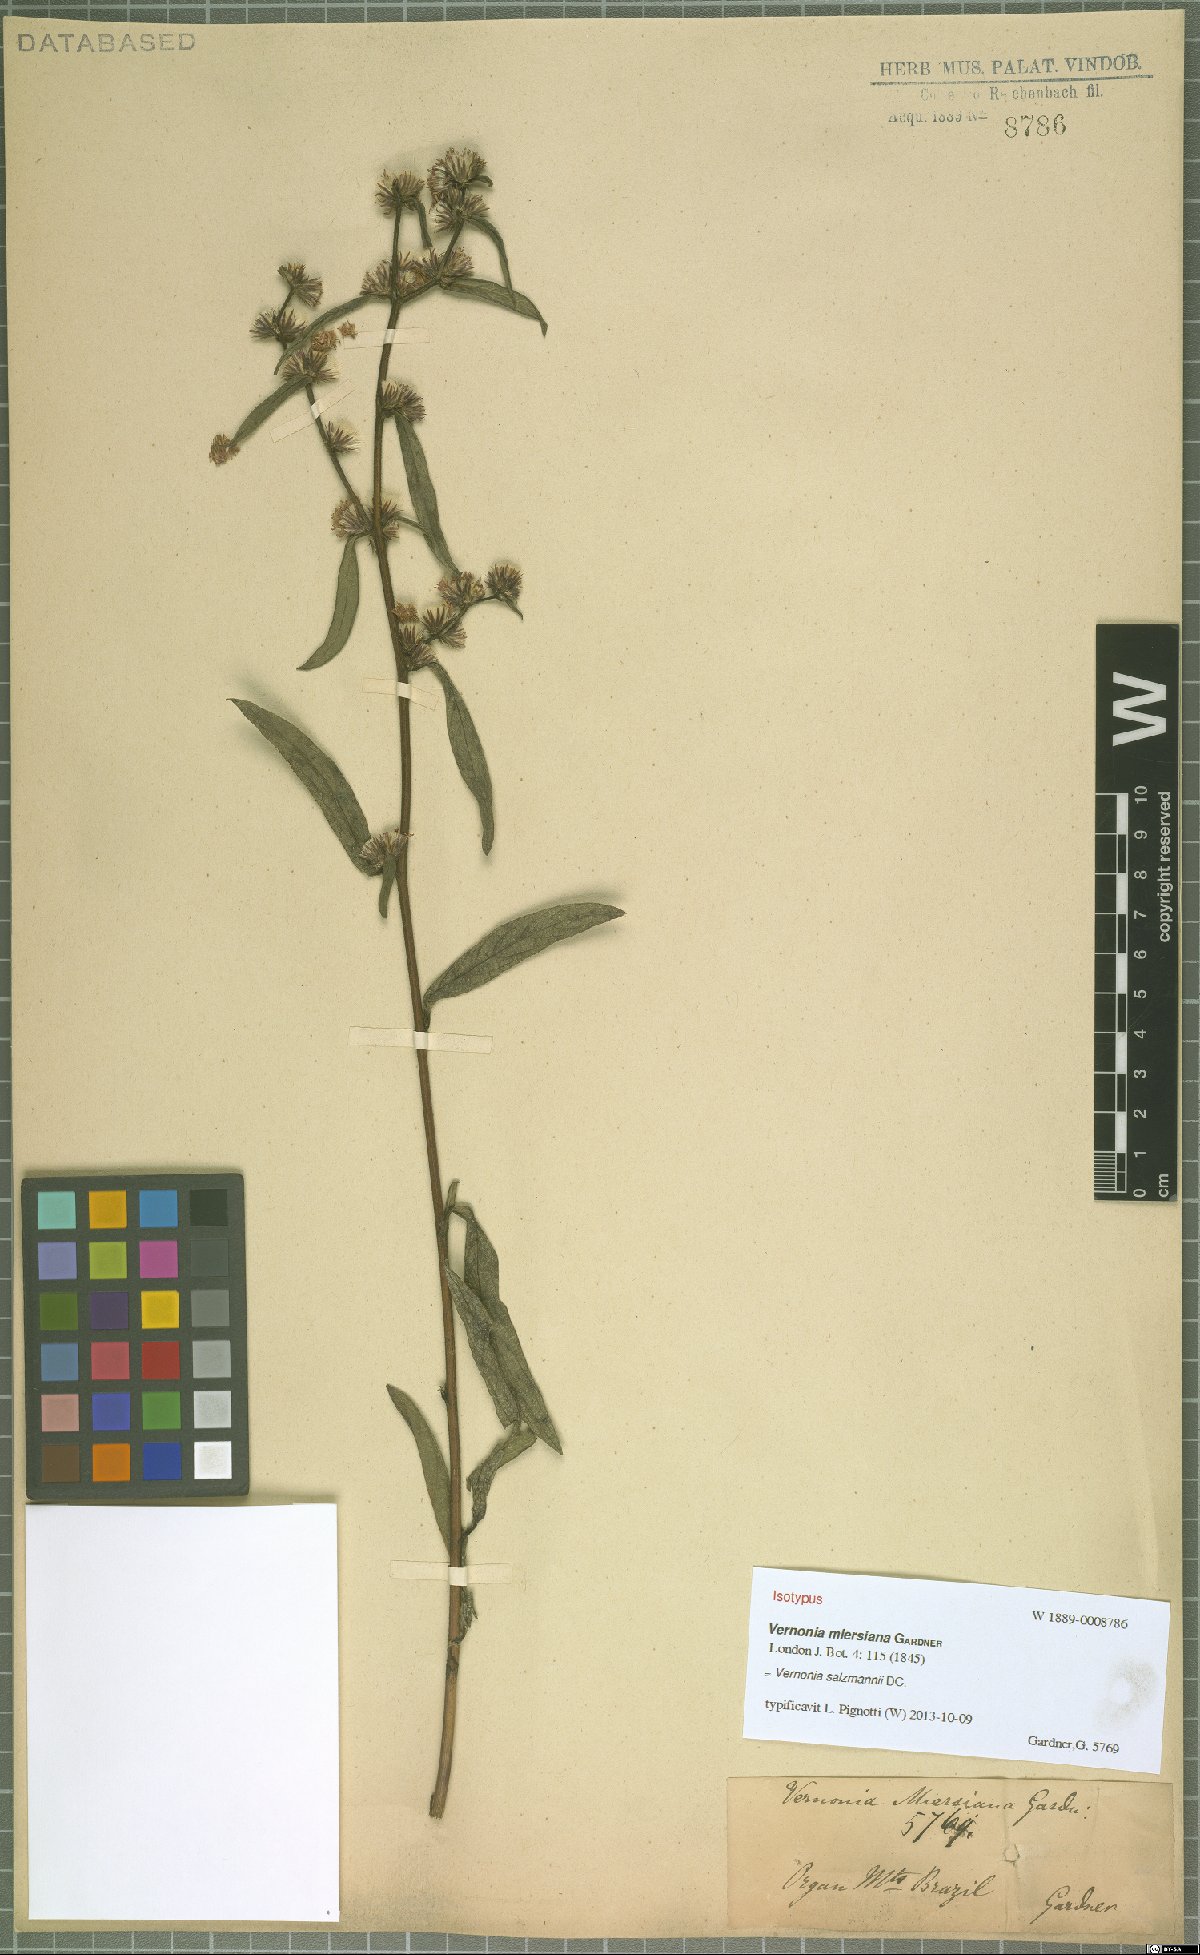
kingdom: Plantae
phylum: Tracheophyta
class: Magnoliopsida
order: Asterales
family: Asteraceae
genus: Lepidaploa
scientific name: Lepidaploa salzmannii
